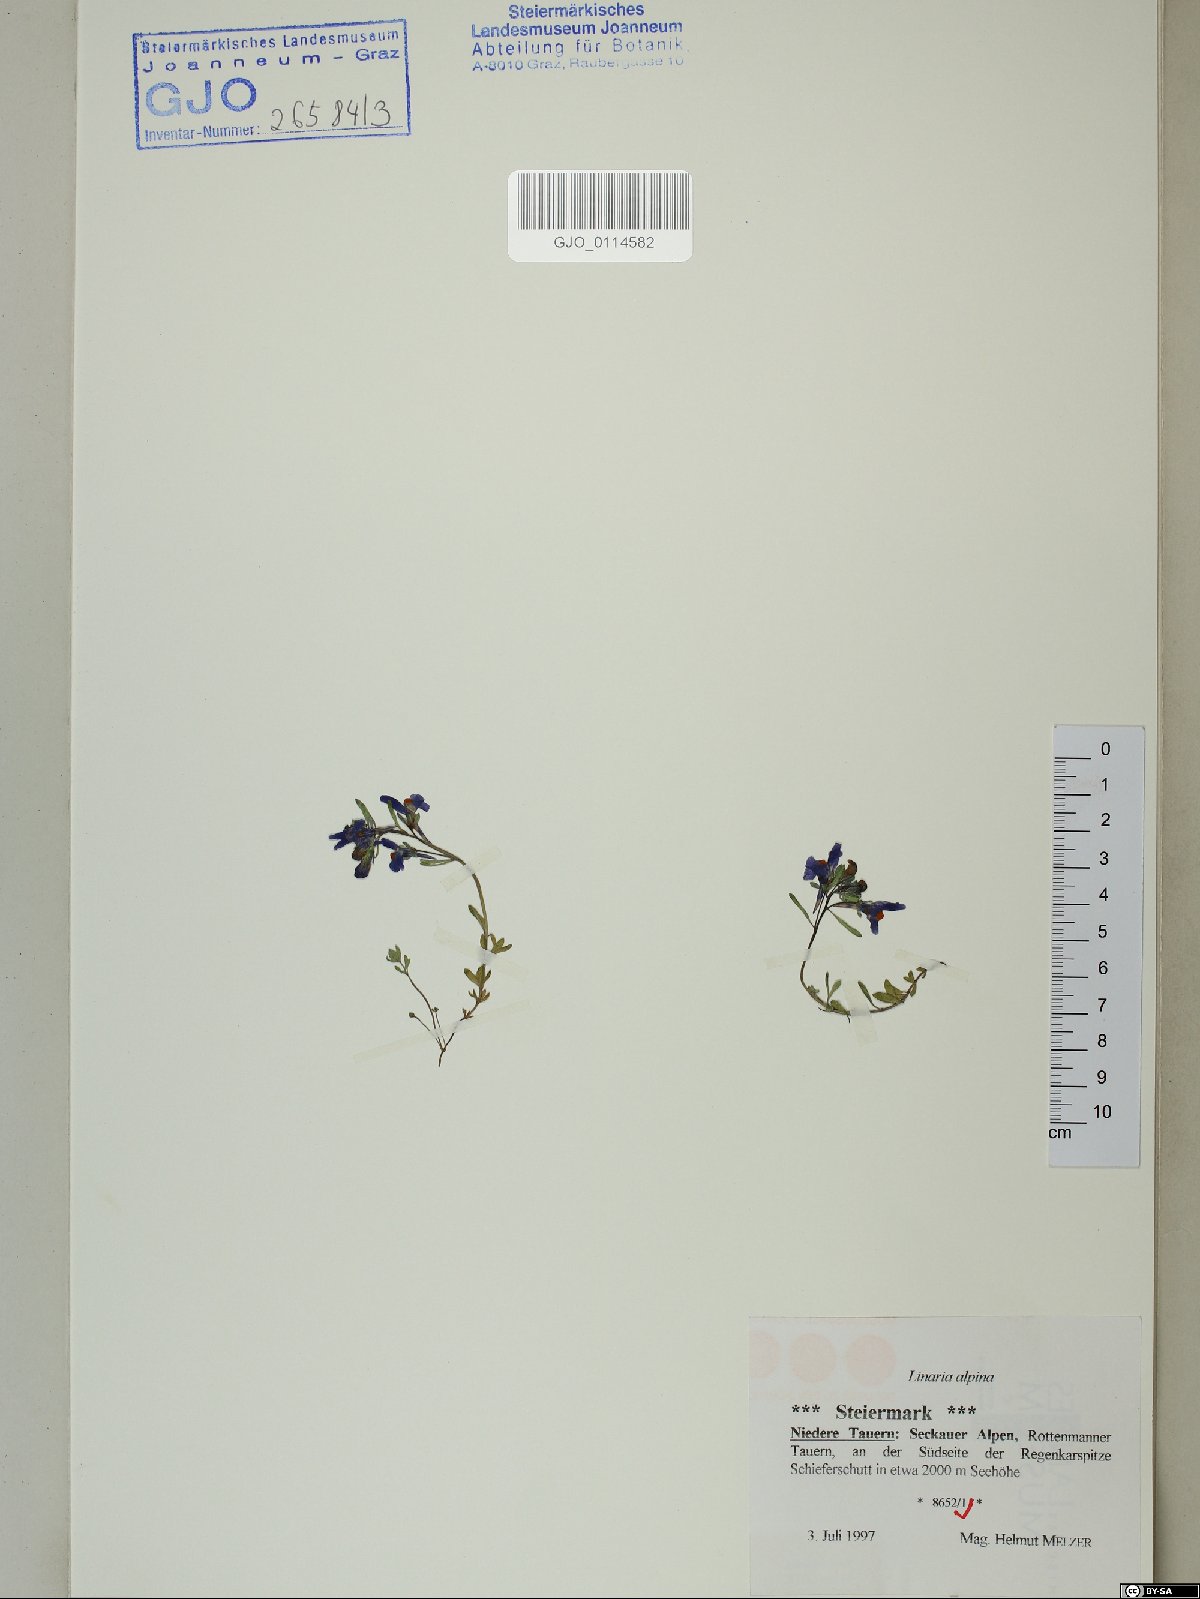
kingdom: Plantae
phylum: Tracheophyta
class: Magnoliopsida
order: Lamiales
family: Plantaginaceae
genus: Linaria
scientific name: Linaria alpina
